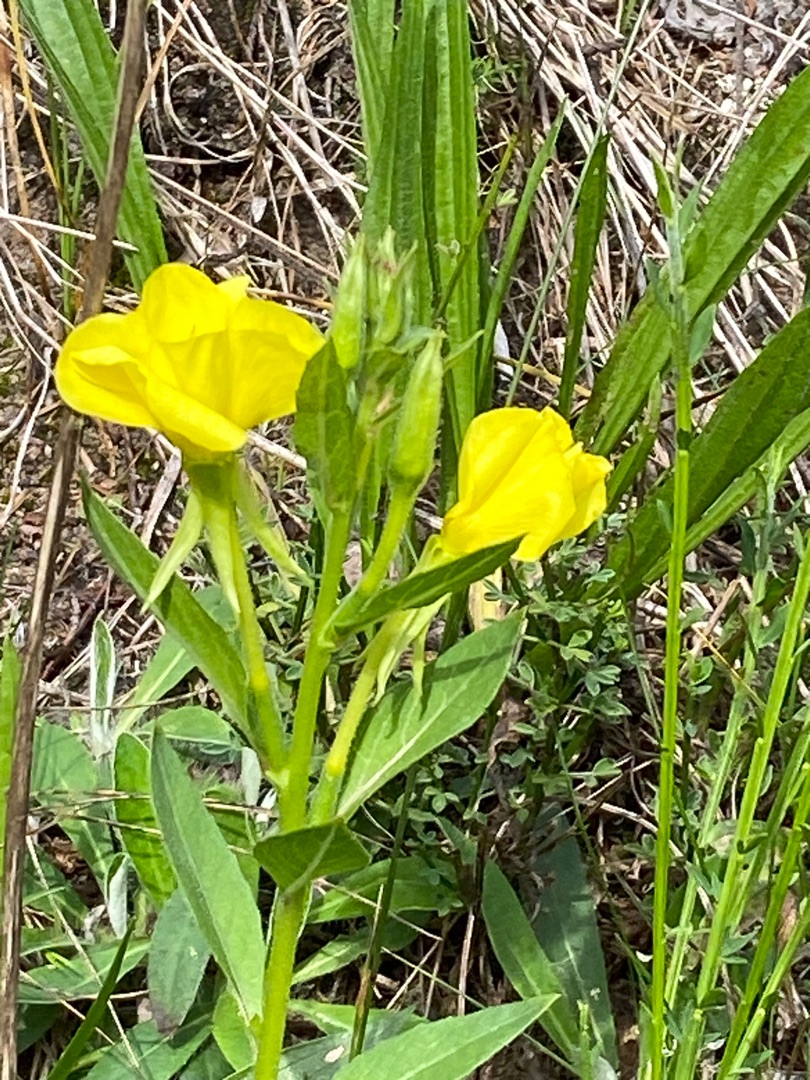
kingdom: Plantae
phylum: Tracheophyta
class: Magnoliopsida
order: Myrtales
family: Onagraceae
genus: Oenothera
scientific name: Oenothera biennis
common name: Toårig natlys
